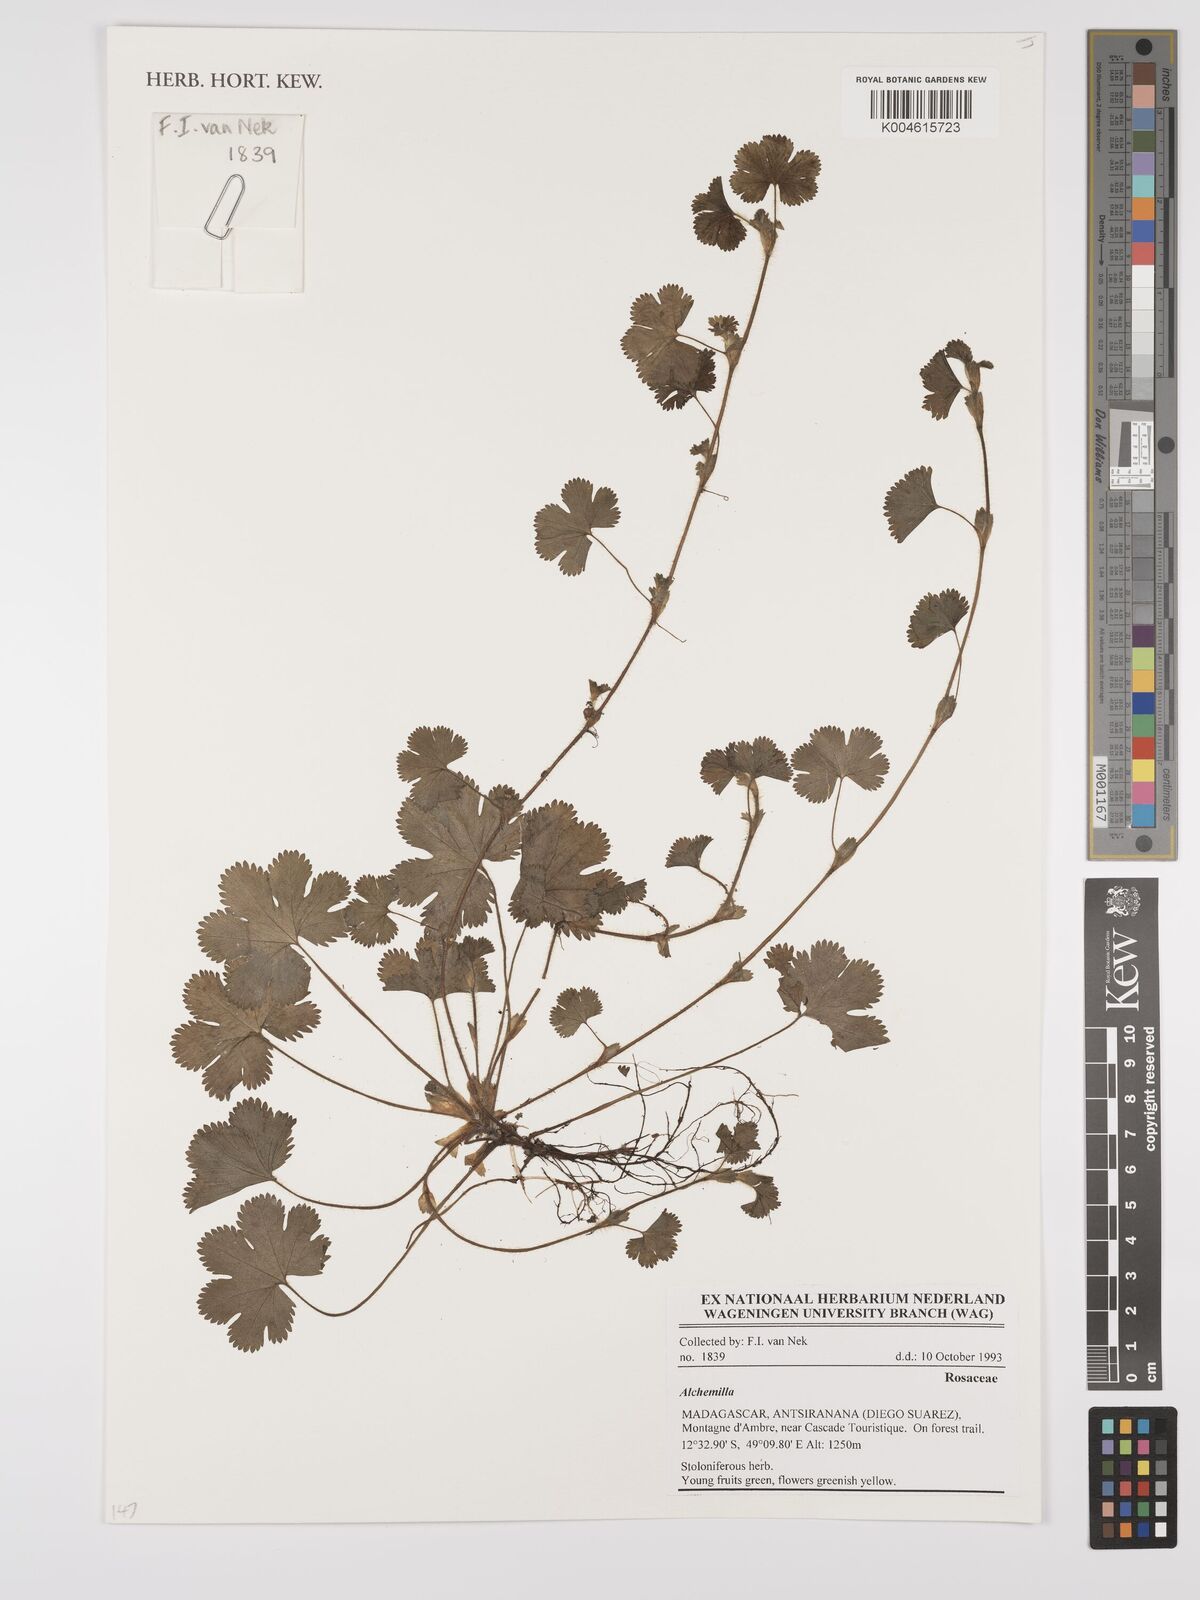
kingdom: Plantae
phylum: Tracheophyta
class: Magnoliopsida
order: Rosales
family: Rosaceae
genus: Alchemilla
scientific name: Alchemilla
